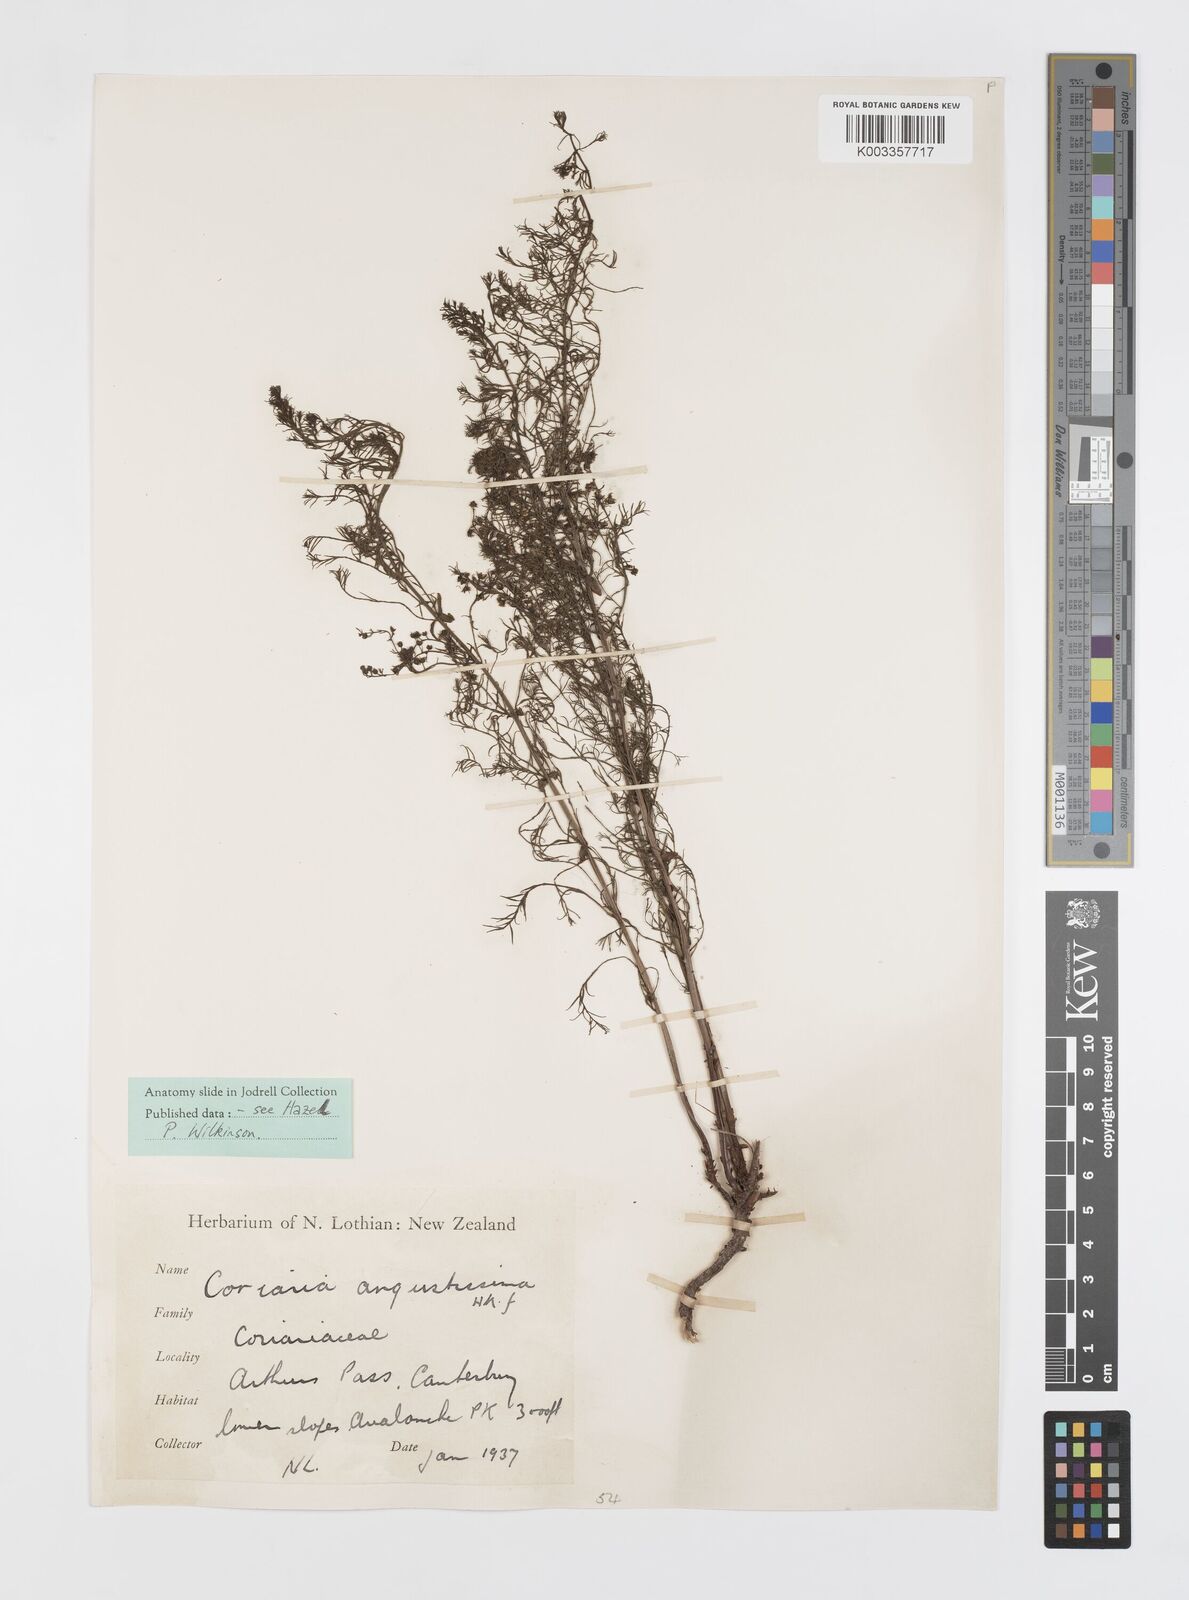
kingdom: Plantae
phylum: Tracheophyta
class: Magnoliopsida
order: Cucurbitales
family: Coriariaceae
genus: Coriaria
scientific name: Coriaria angustissima
